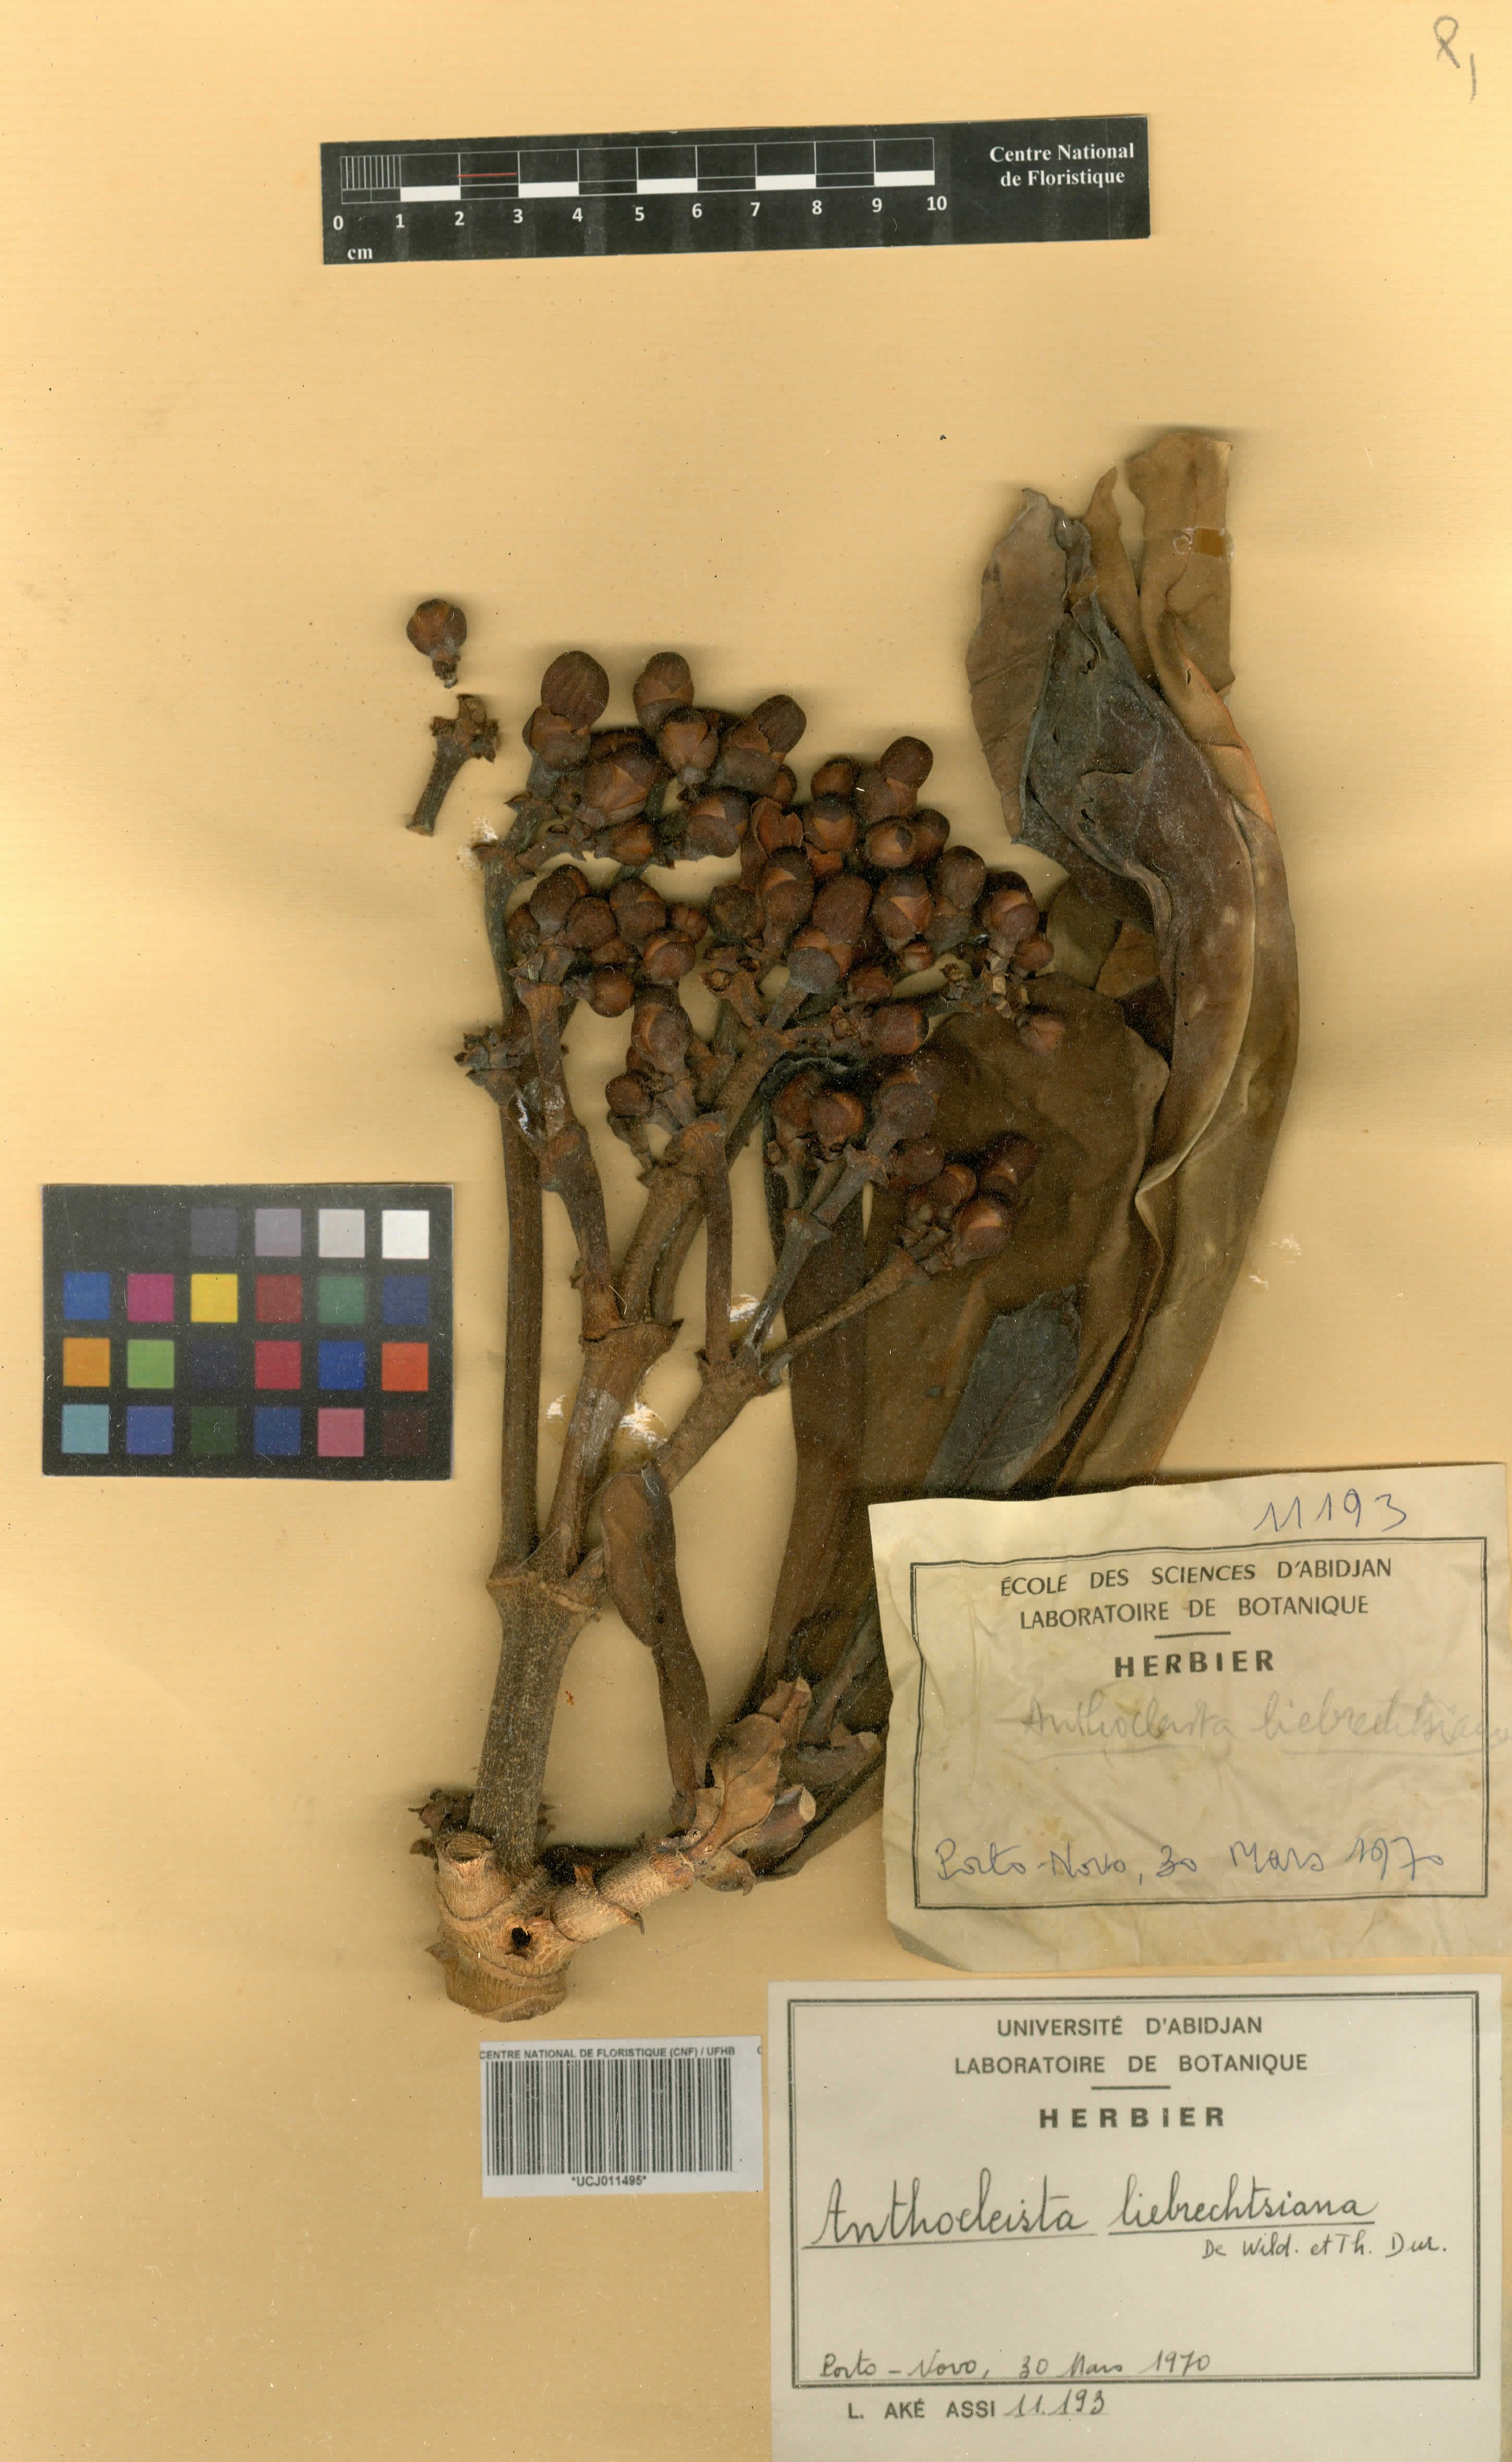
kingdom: Plantae
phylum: Tracheophyta
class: Magnoliopsida
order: Gentianales
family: Gentianaceae
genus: Anthocleista
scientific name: Anthocleista liebrechtsiana
